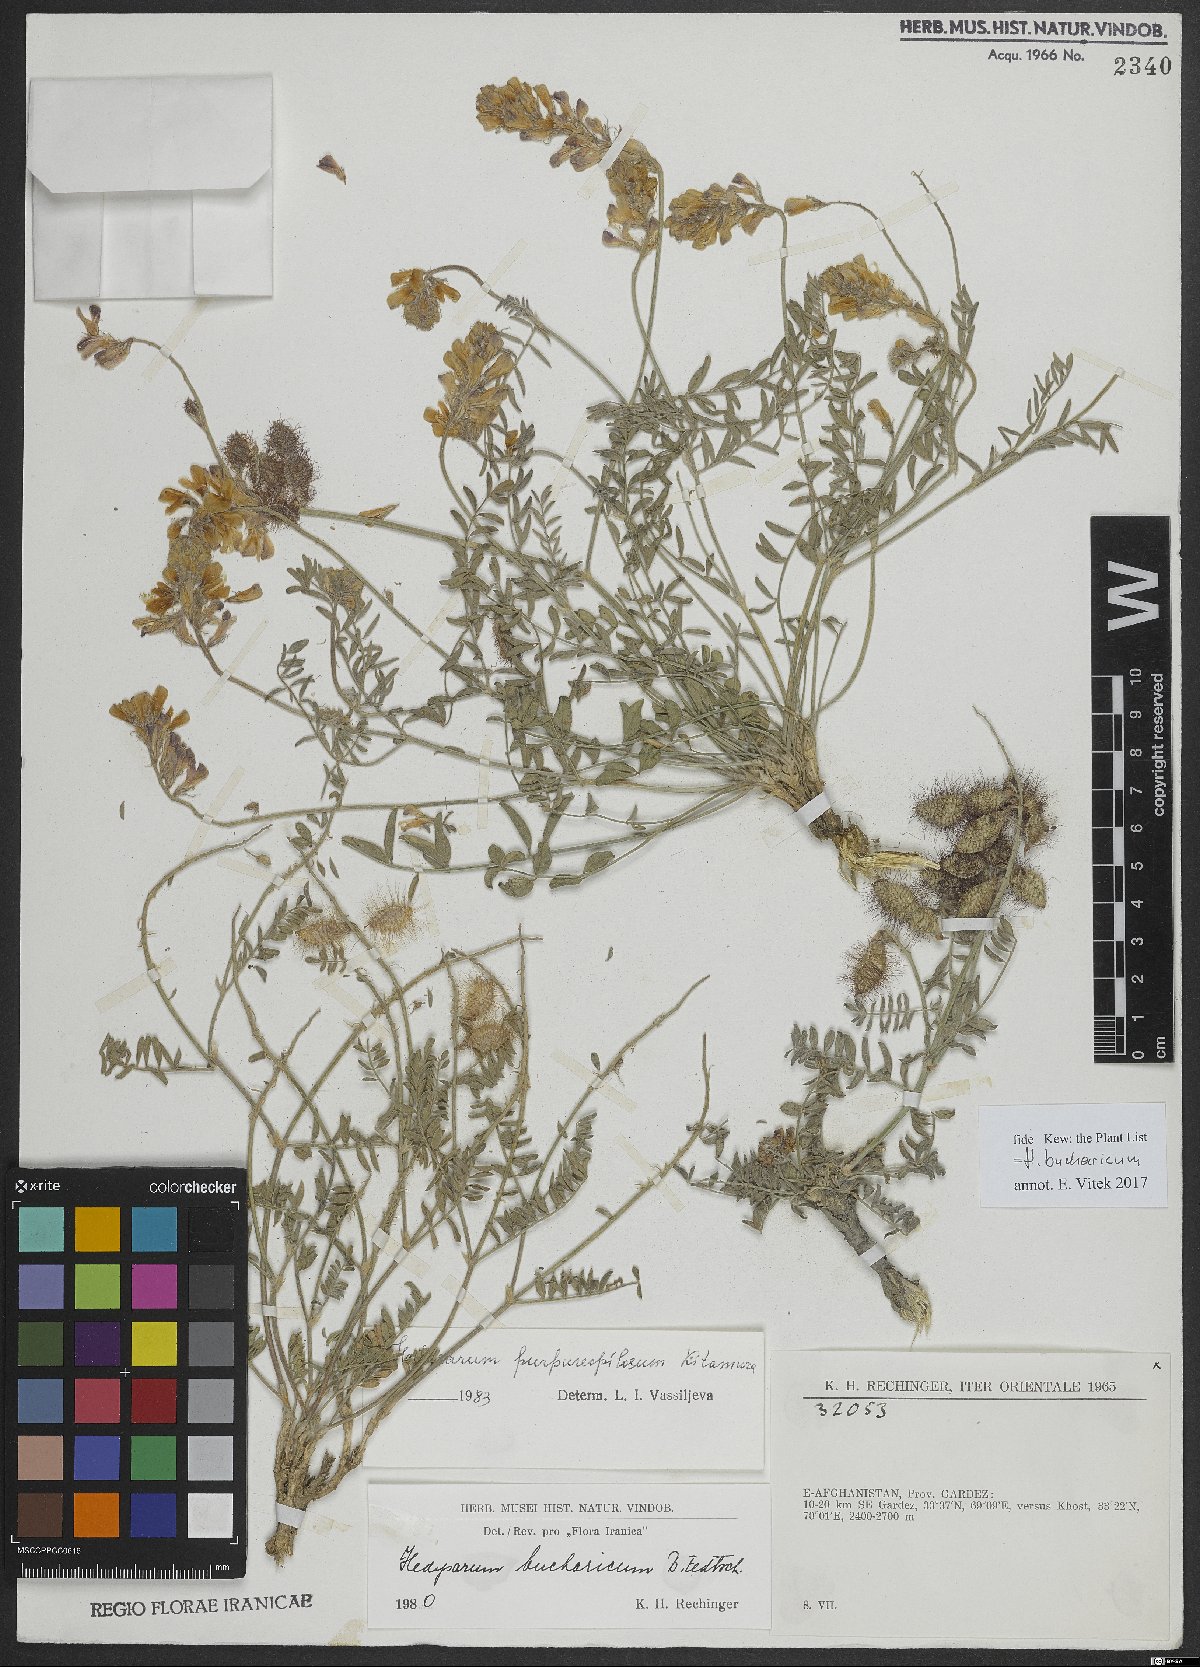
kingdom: Plantae
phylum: Tracheophyta
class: Magnoliopsida
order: Fabales
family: Fabaceae
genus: Hedysarum
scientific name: Hedysarum bucharicum
